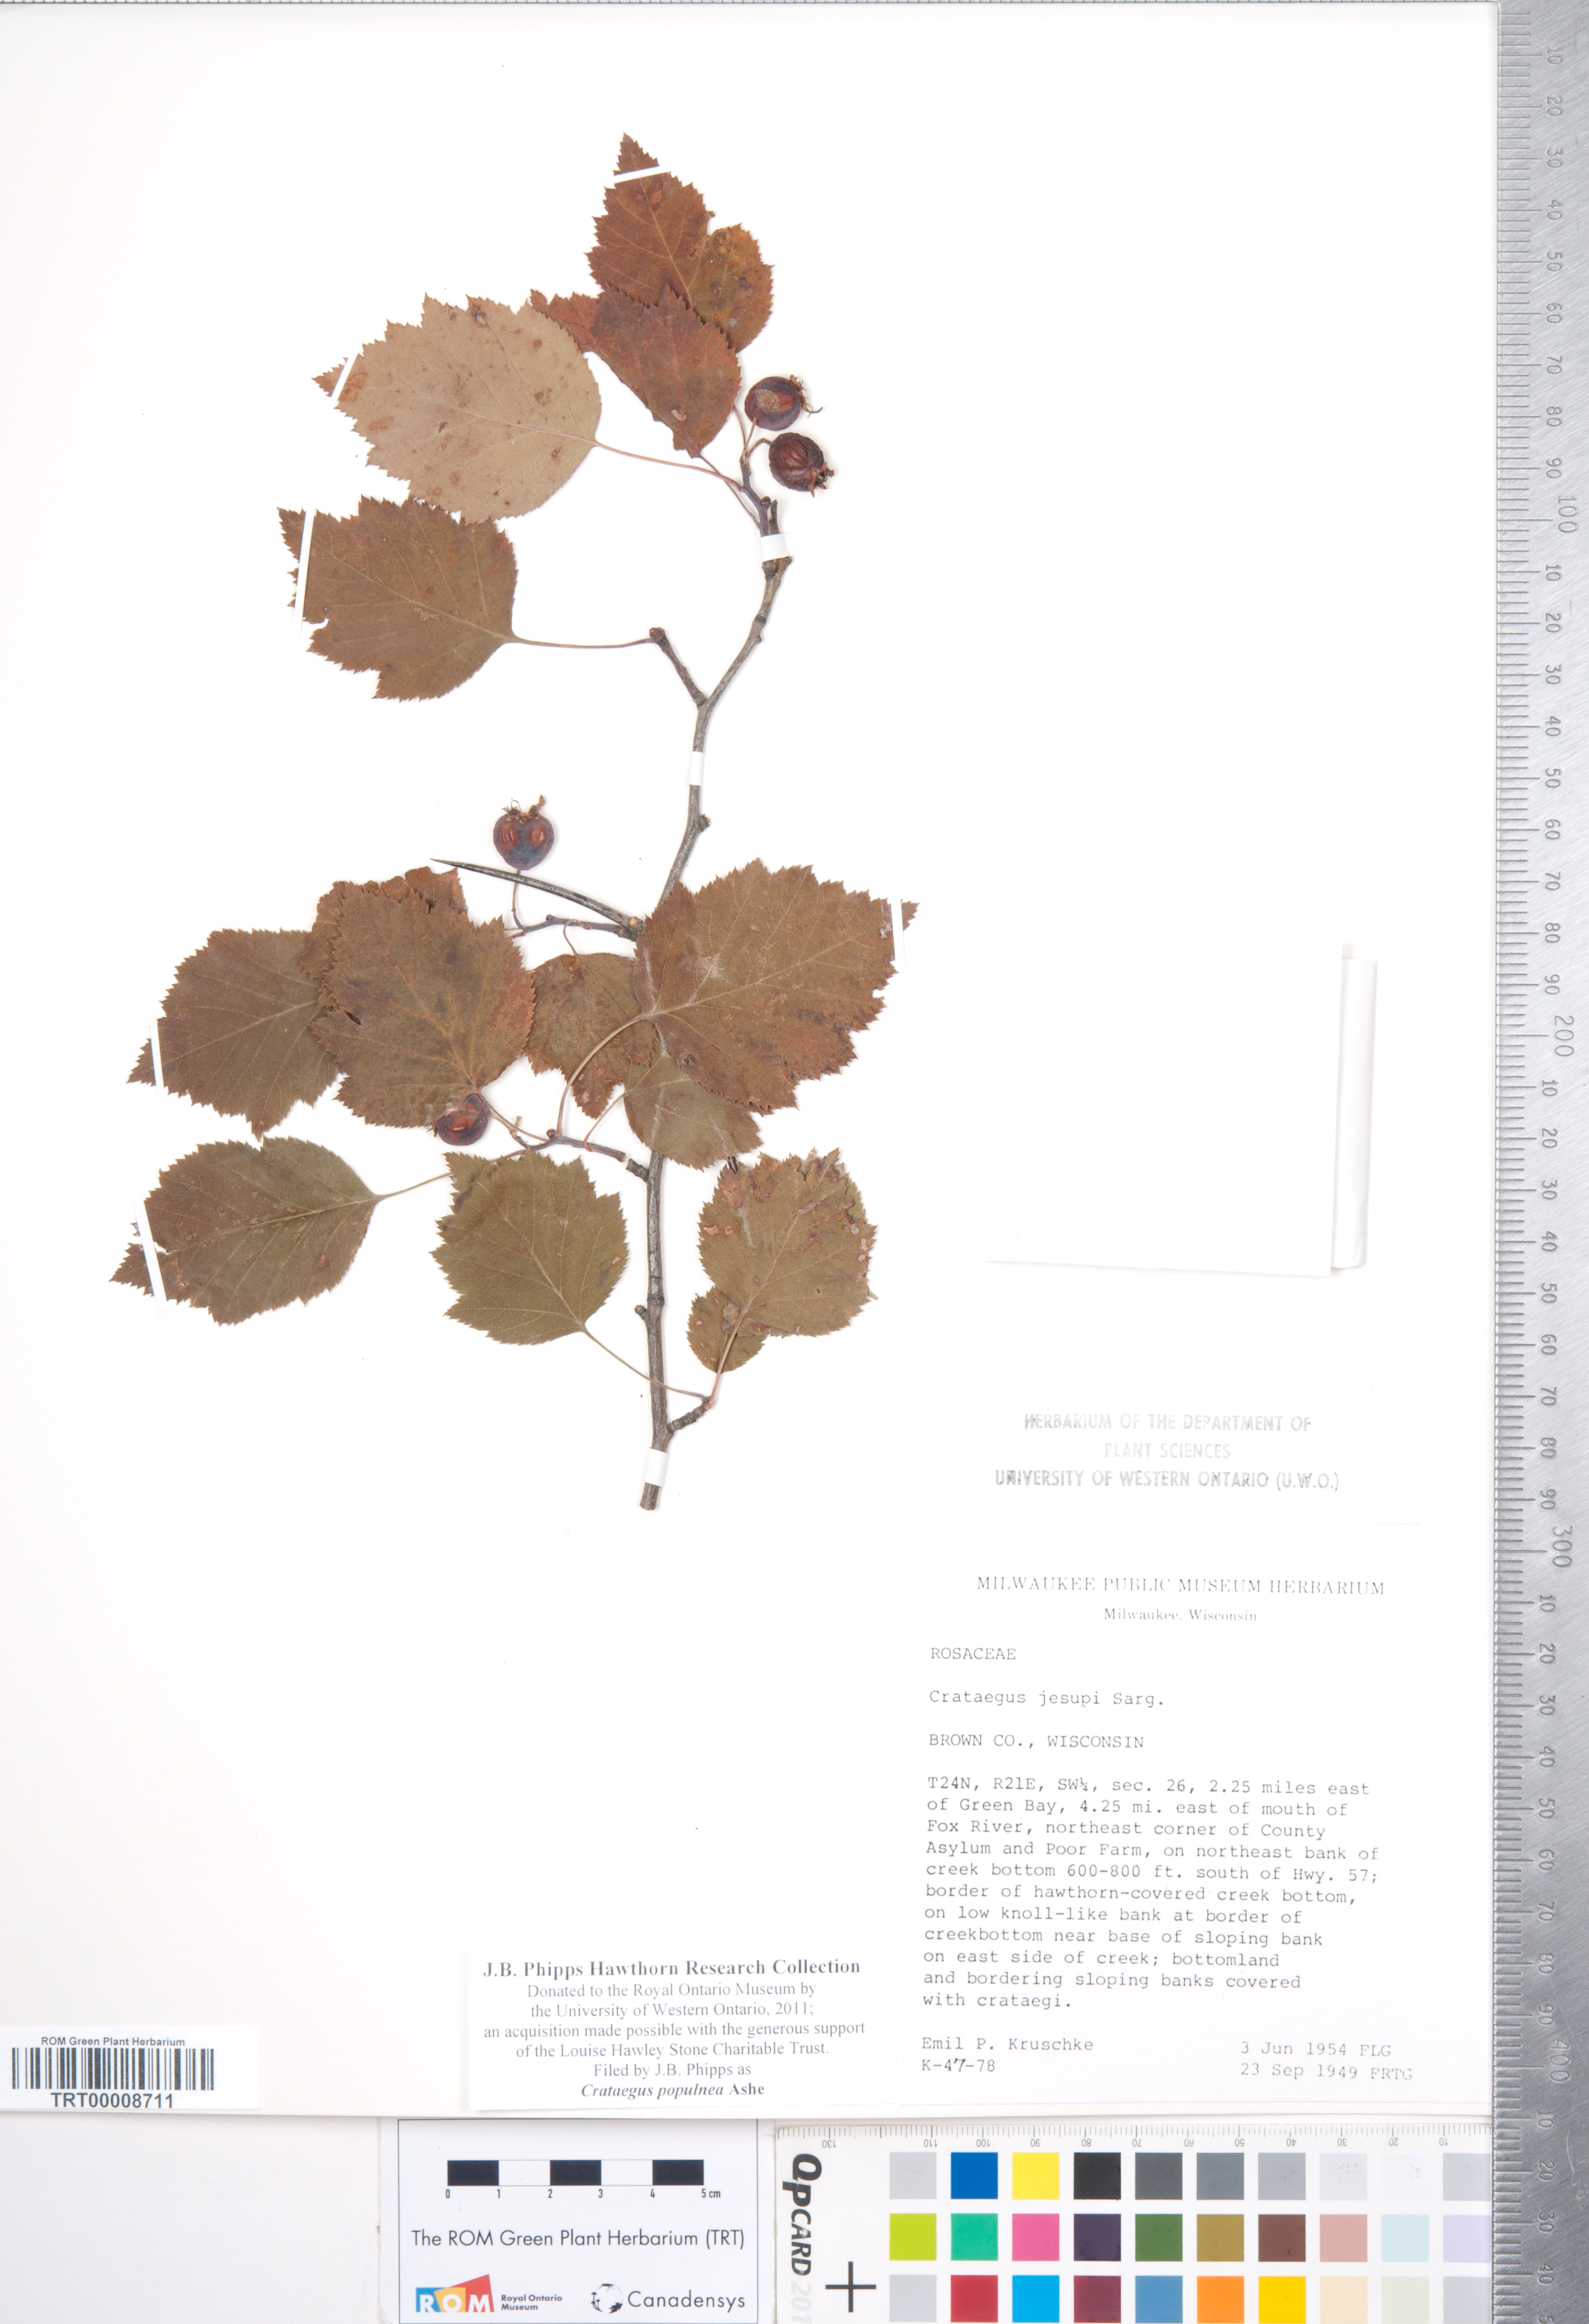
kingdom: Plantae
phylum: Tracheophyta
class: Magnoliopsida
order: Rosales
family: Rosaceae
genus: Crataegus
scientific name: Crataegus populnea
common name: Adorned hawthorn
